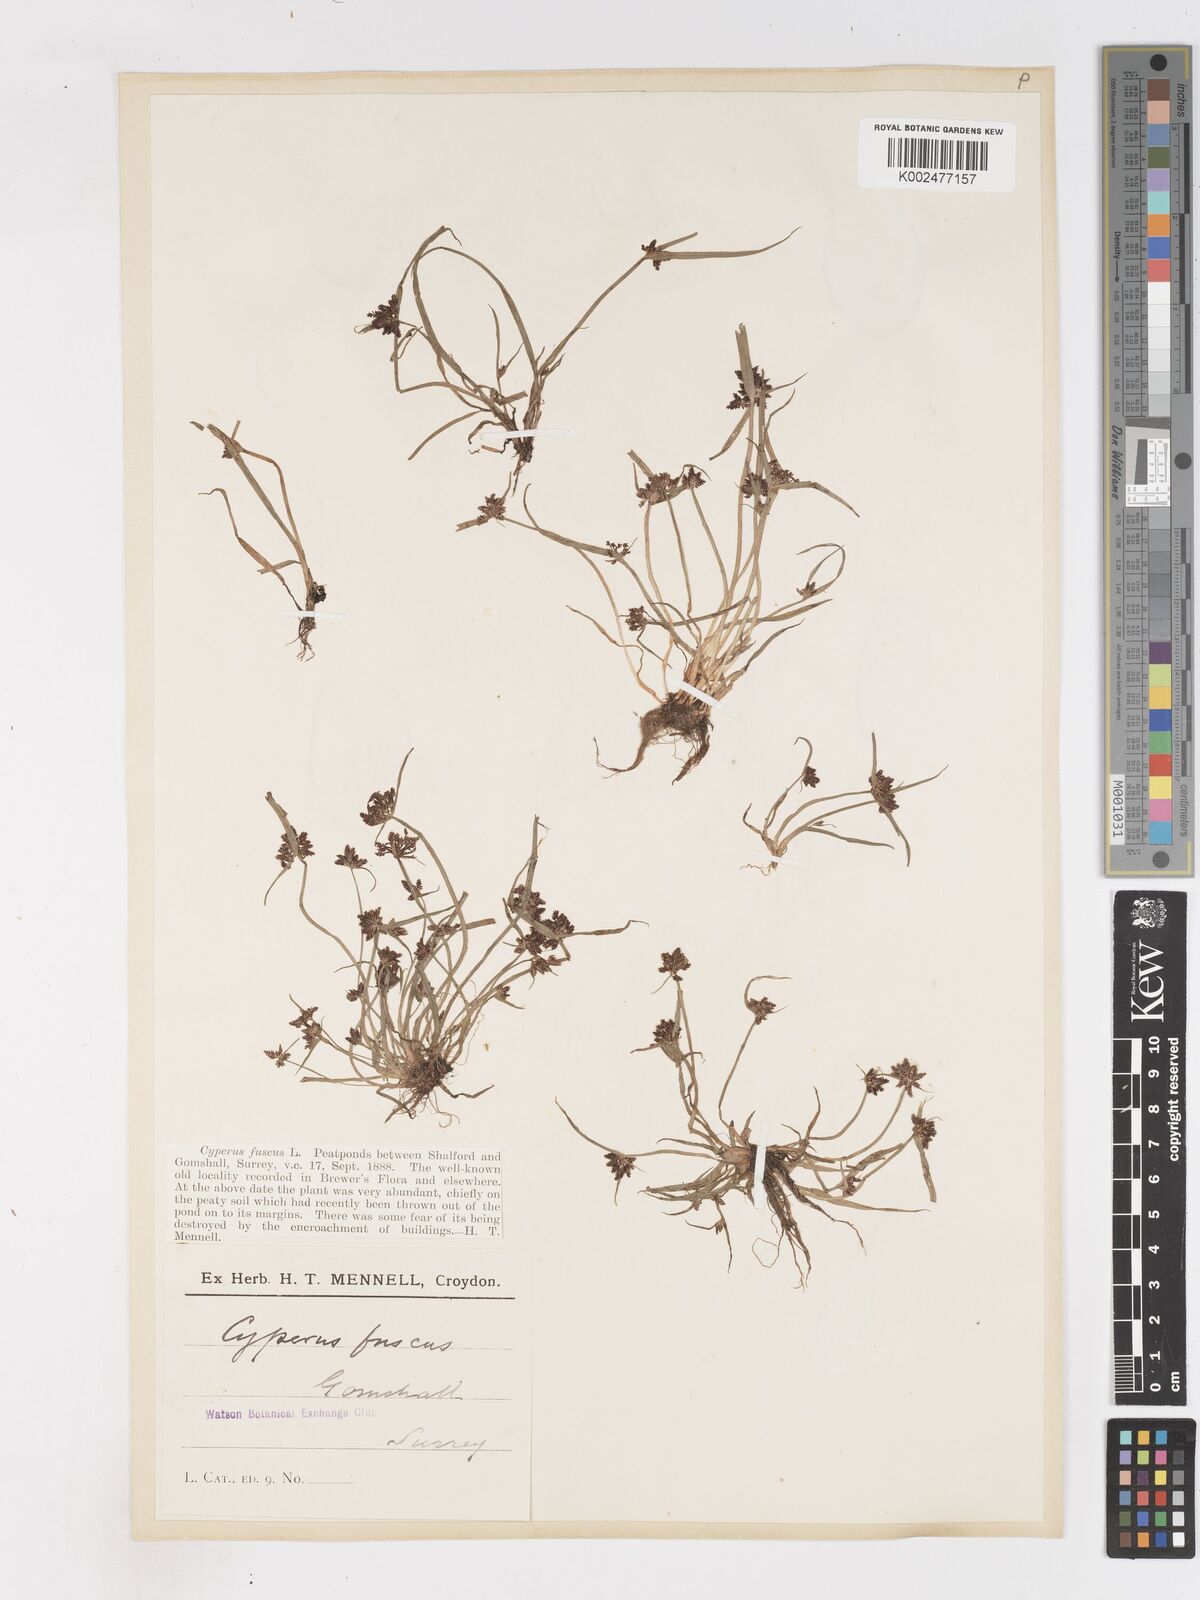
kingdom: Plantae
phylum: Tracheophyta
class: Liliopsida
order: Poales
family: Cyperaceae
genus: Cyperus
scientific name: Cyperus fuscus
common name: Brown galingale
